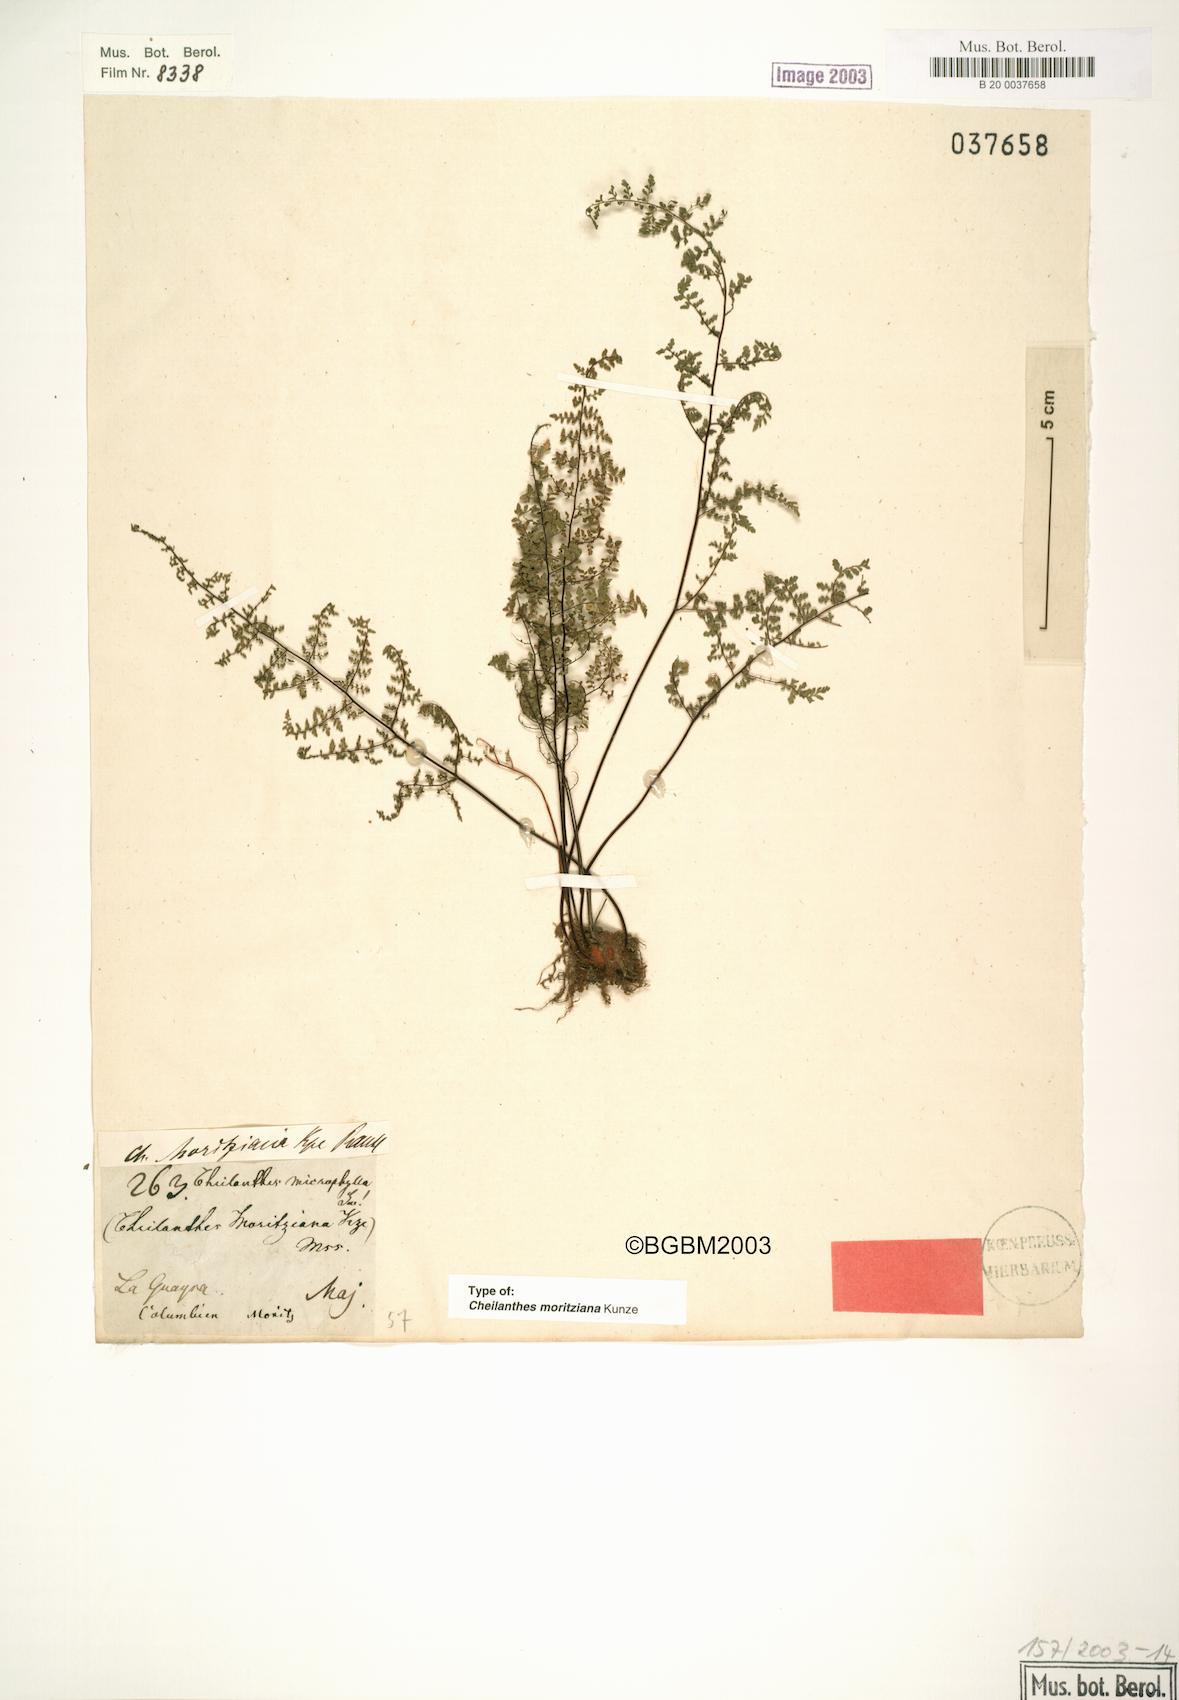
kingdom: Plantae
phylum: Tracheophyta
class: Polypodiopsida
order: Polypodiales
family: Pteridaceae
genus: Myriopteris
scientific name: Myriopteris moritziana
